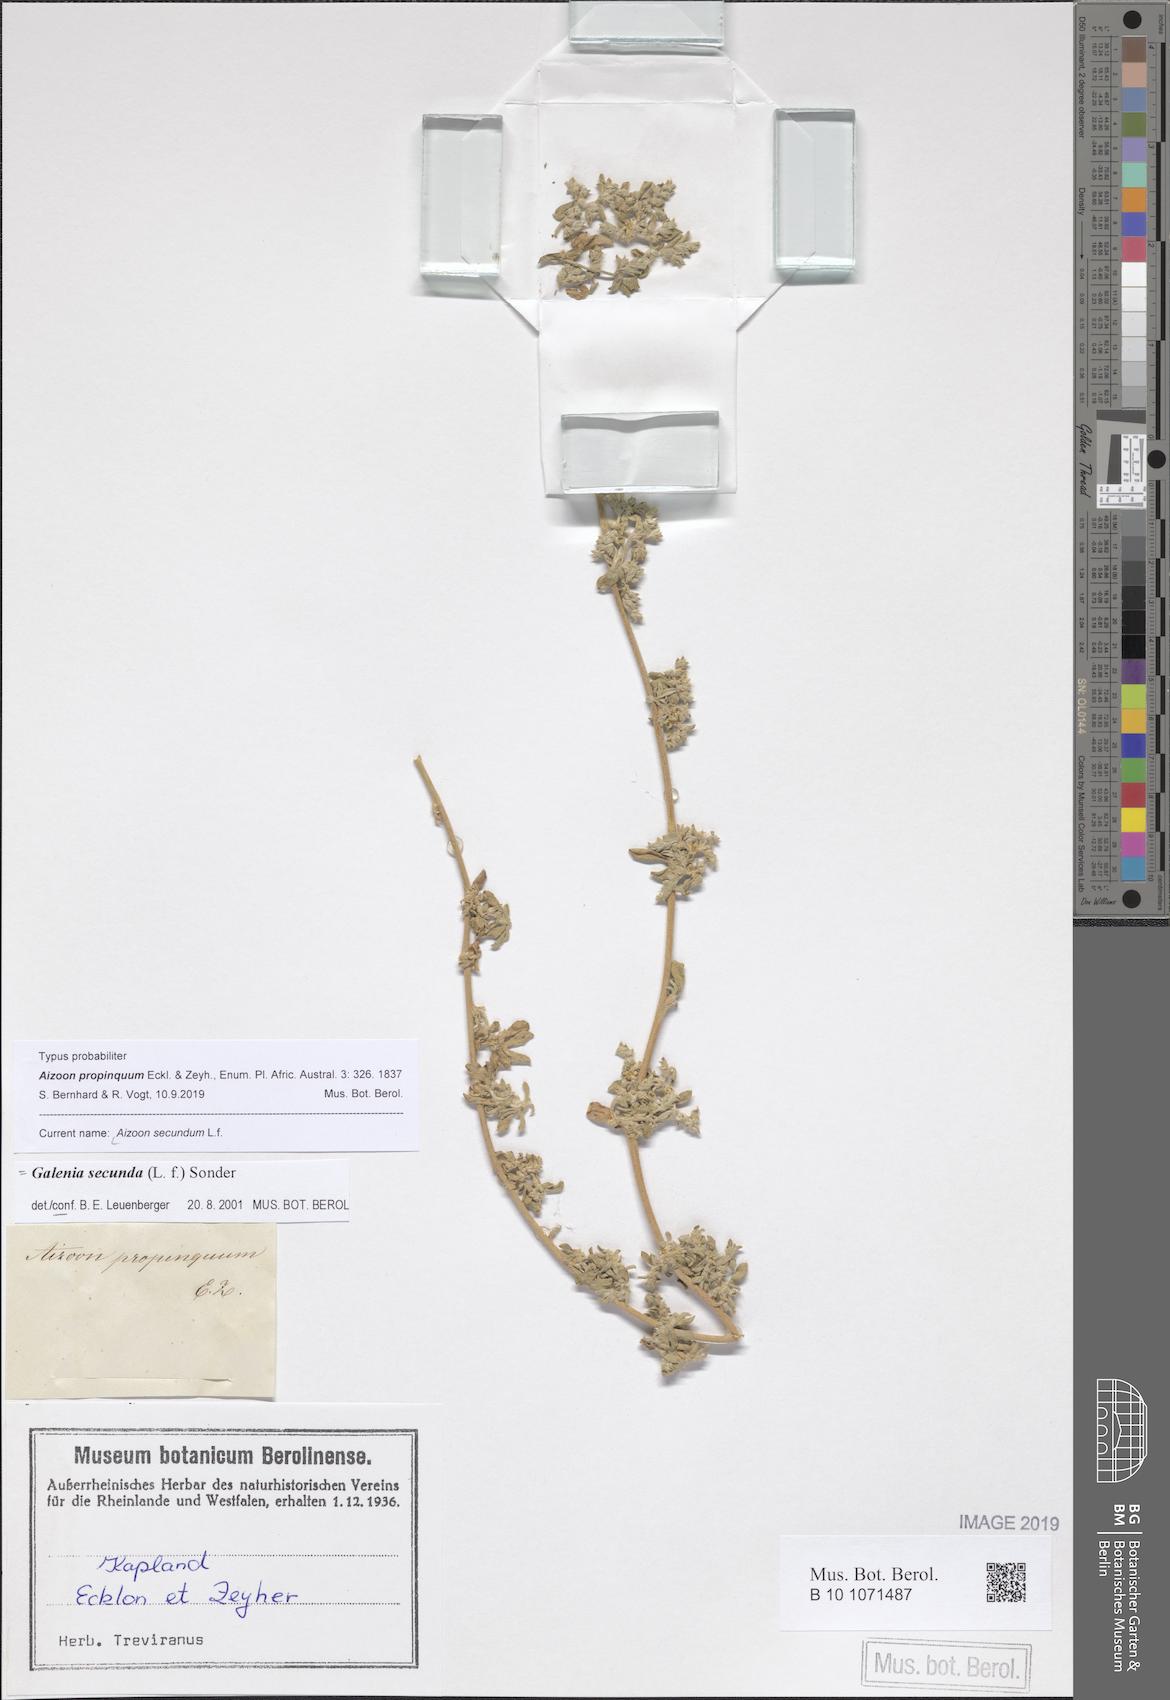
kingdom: Plantae
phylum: Tracheophyta
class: Magnoliopsida
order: Caryophyllales
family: Aizoaceae
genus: Aizoon
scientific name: Aizoon secundum
